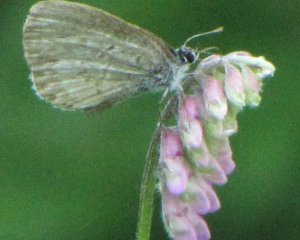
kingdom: Animalia
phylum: Arthropoda
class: Insecta
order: Lepidoptera
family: Lycaenidae
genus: Celastrina
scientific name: Celastrina
